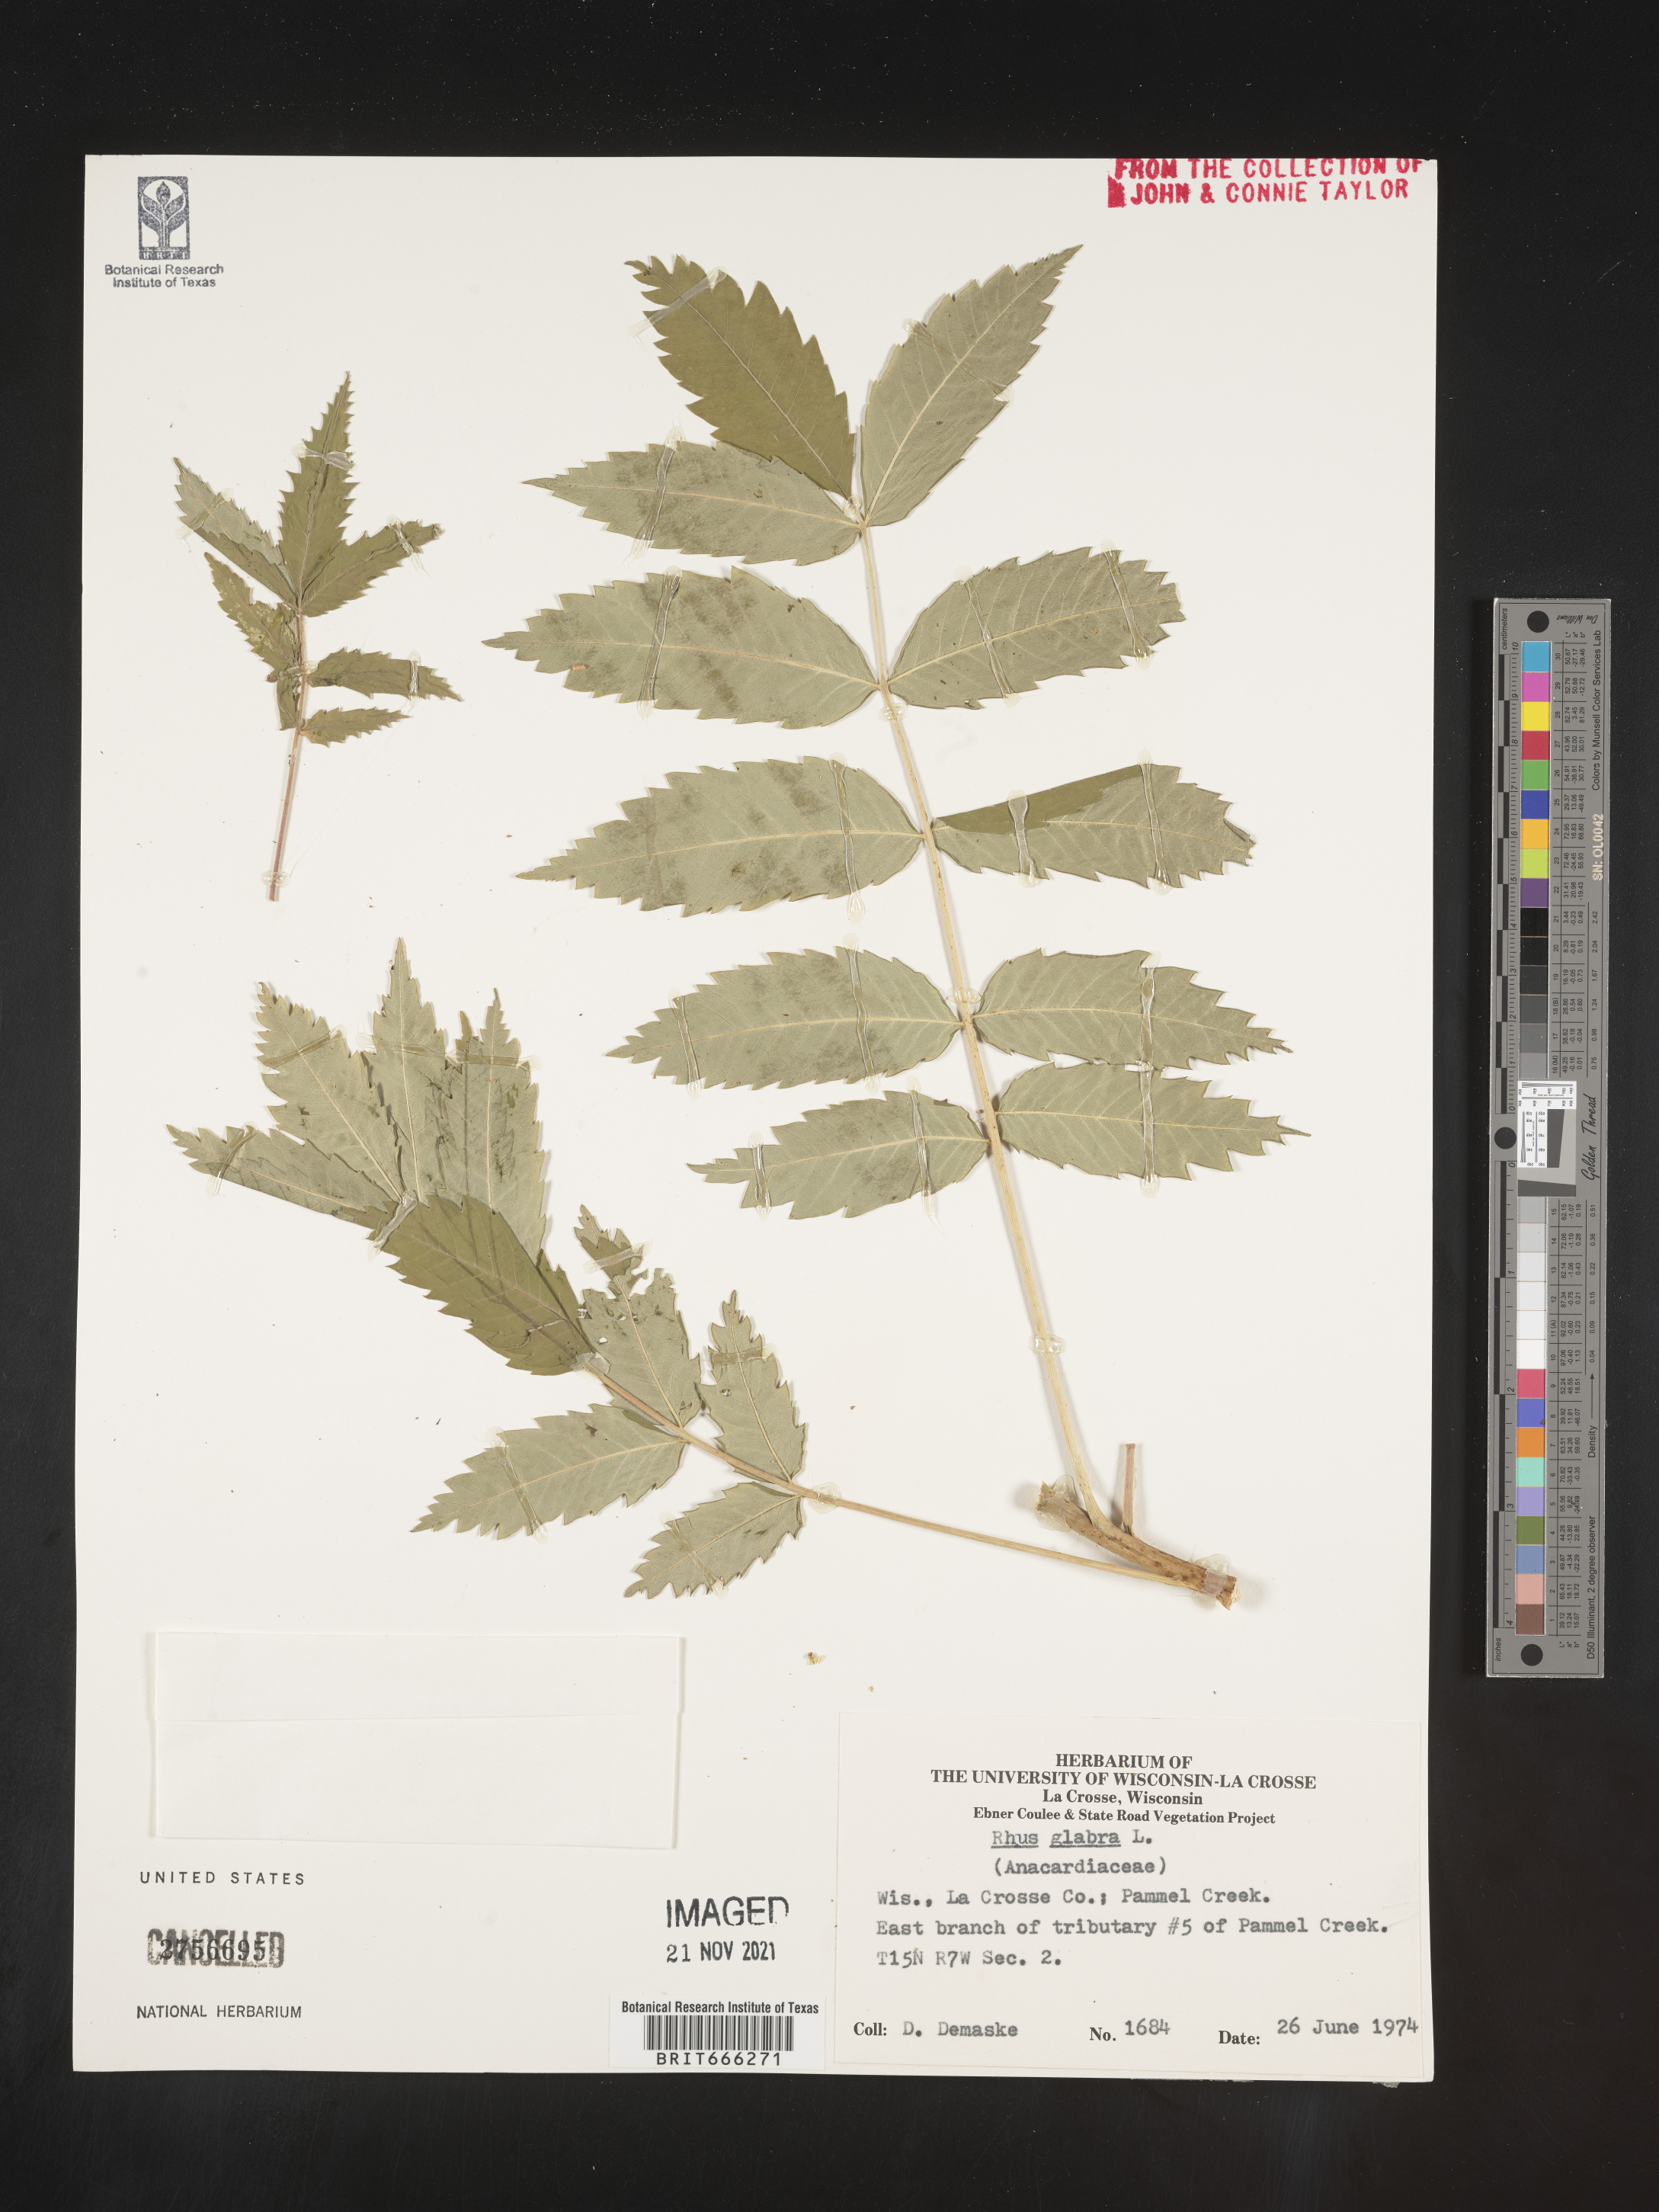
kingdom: Plantae
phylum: Tracheophyta
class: Magnoliopsida
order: Sapindales
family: Anacardiaceae
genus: Rhus
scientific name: Rhus glabra
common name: Scarlet sumac
